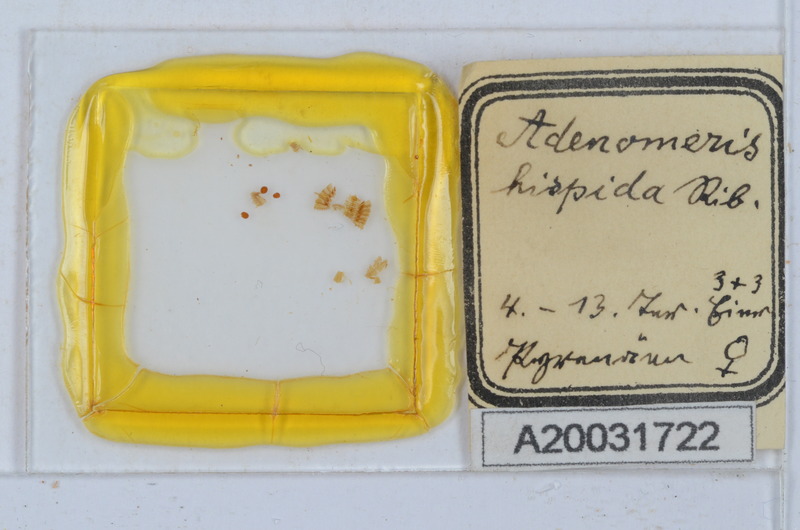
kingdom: Animalia
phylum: Arthropoda
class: Diplopoda
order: Glomerida
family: Glomeridae
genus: Adenomeris
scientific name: Adenomeris hispida
